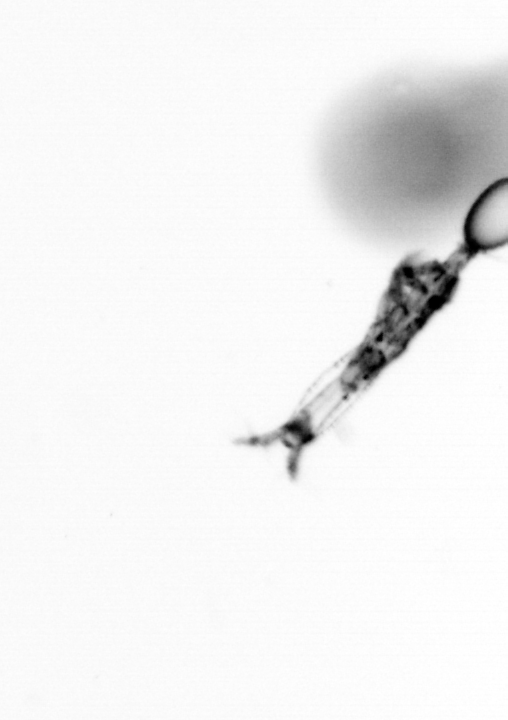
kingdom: Animalia
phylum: Arthropoda
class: Copepoda
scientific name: Copepoda
